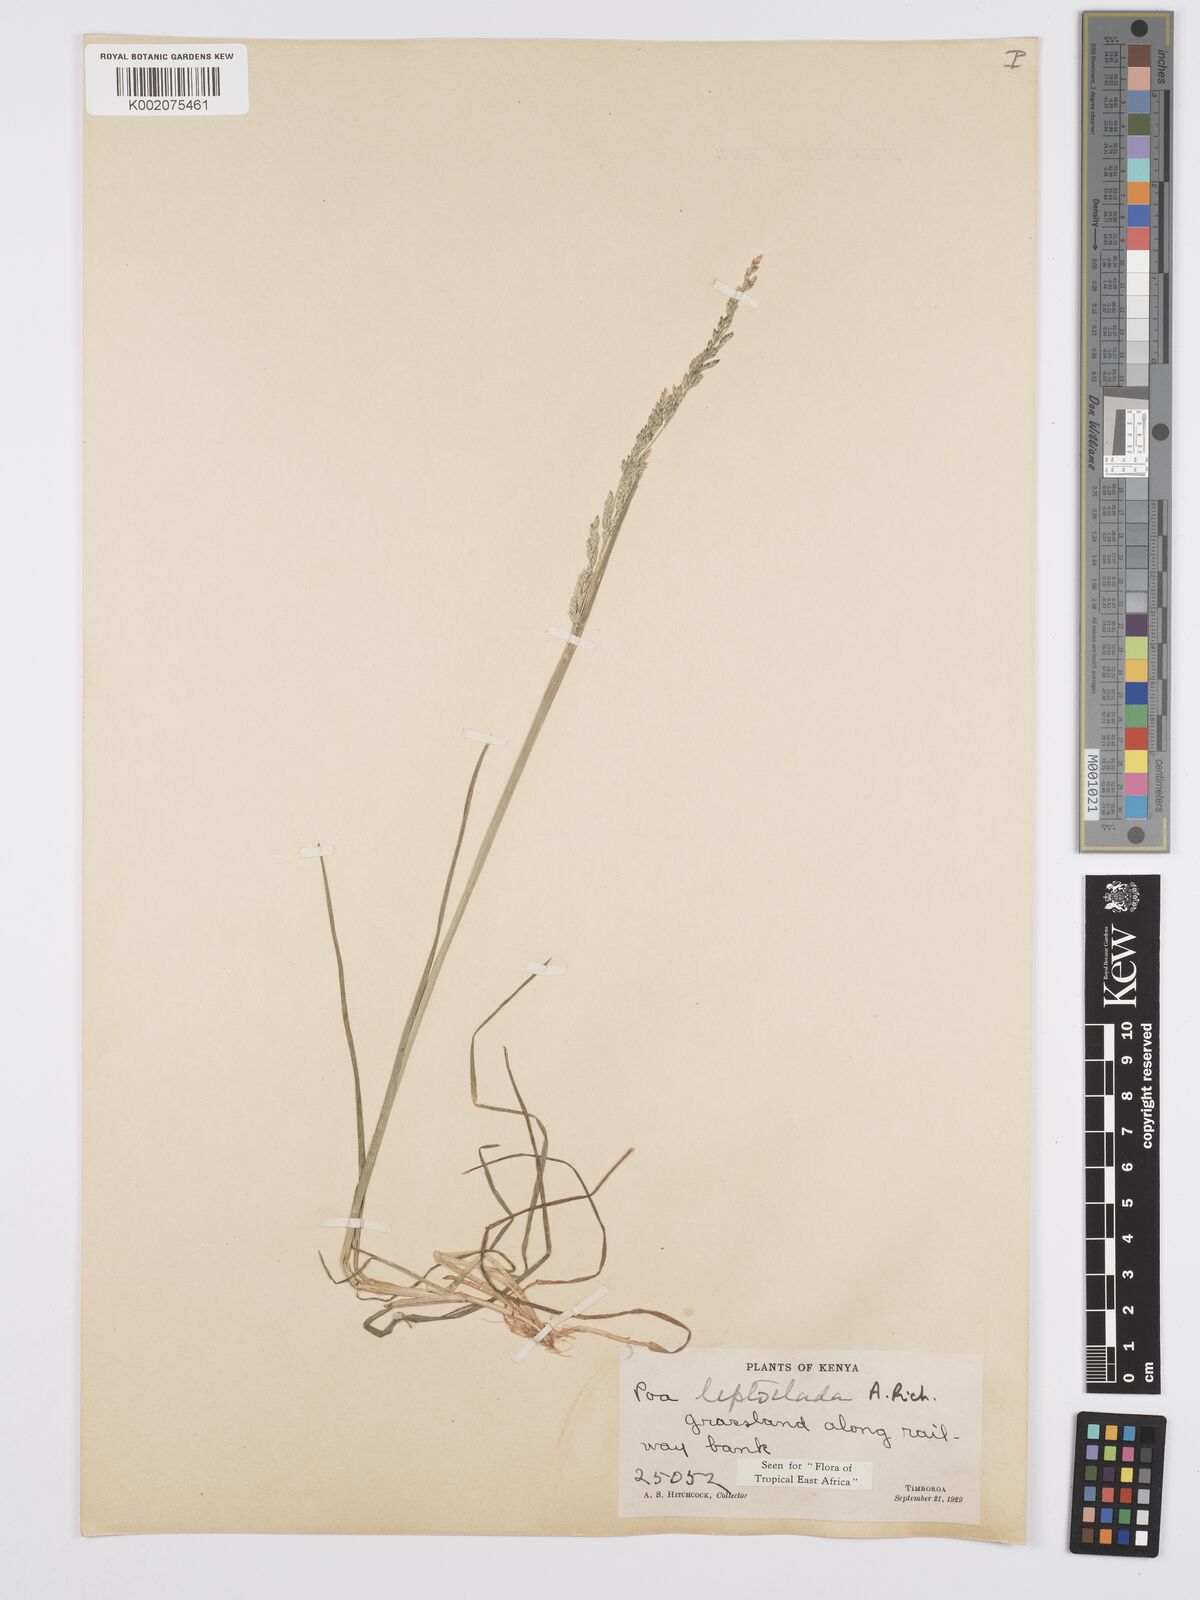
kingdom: Plantae
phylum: Tracheophyta
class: Liliopsida
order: Poales
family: Poaceae
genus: Poa
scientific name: Poa leptoclada
